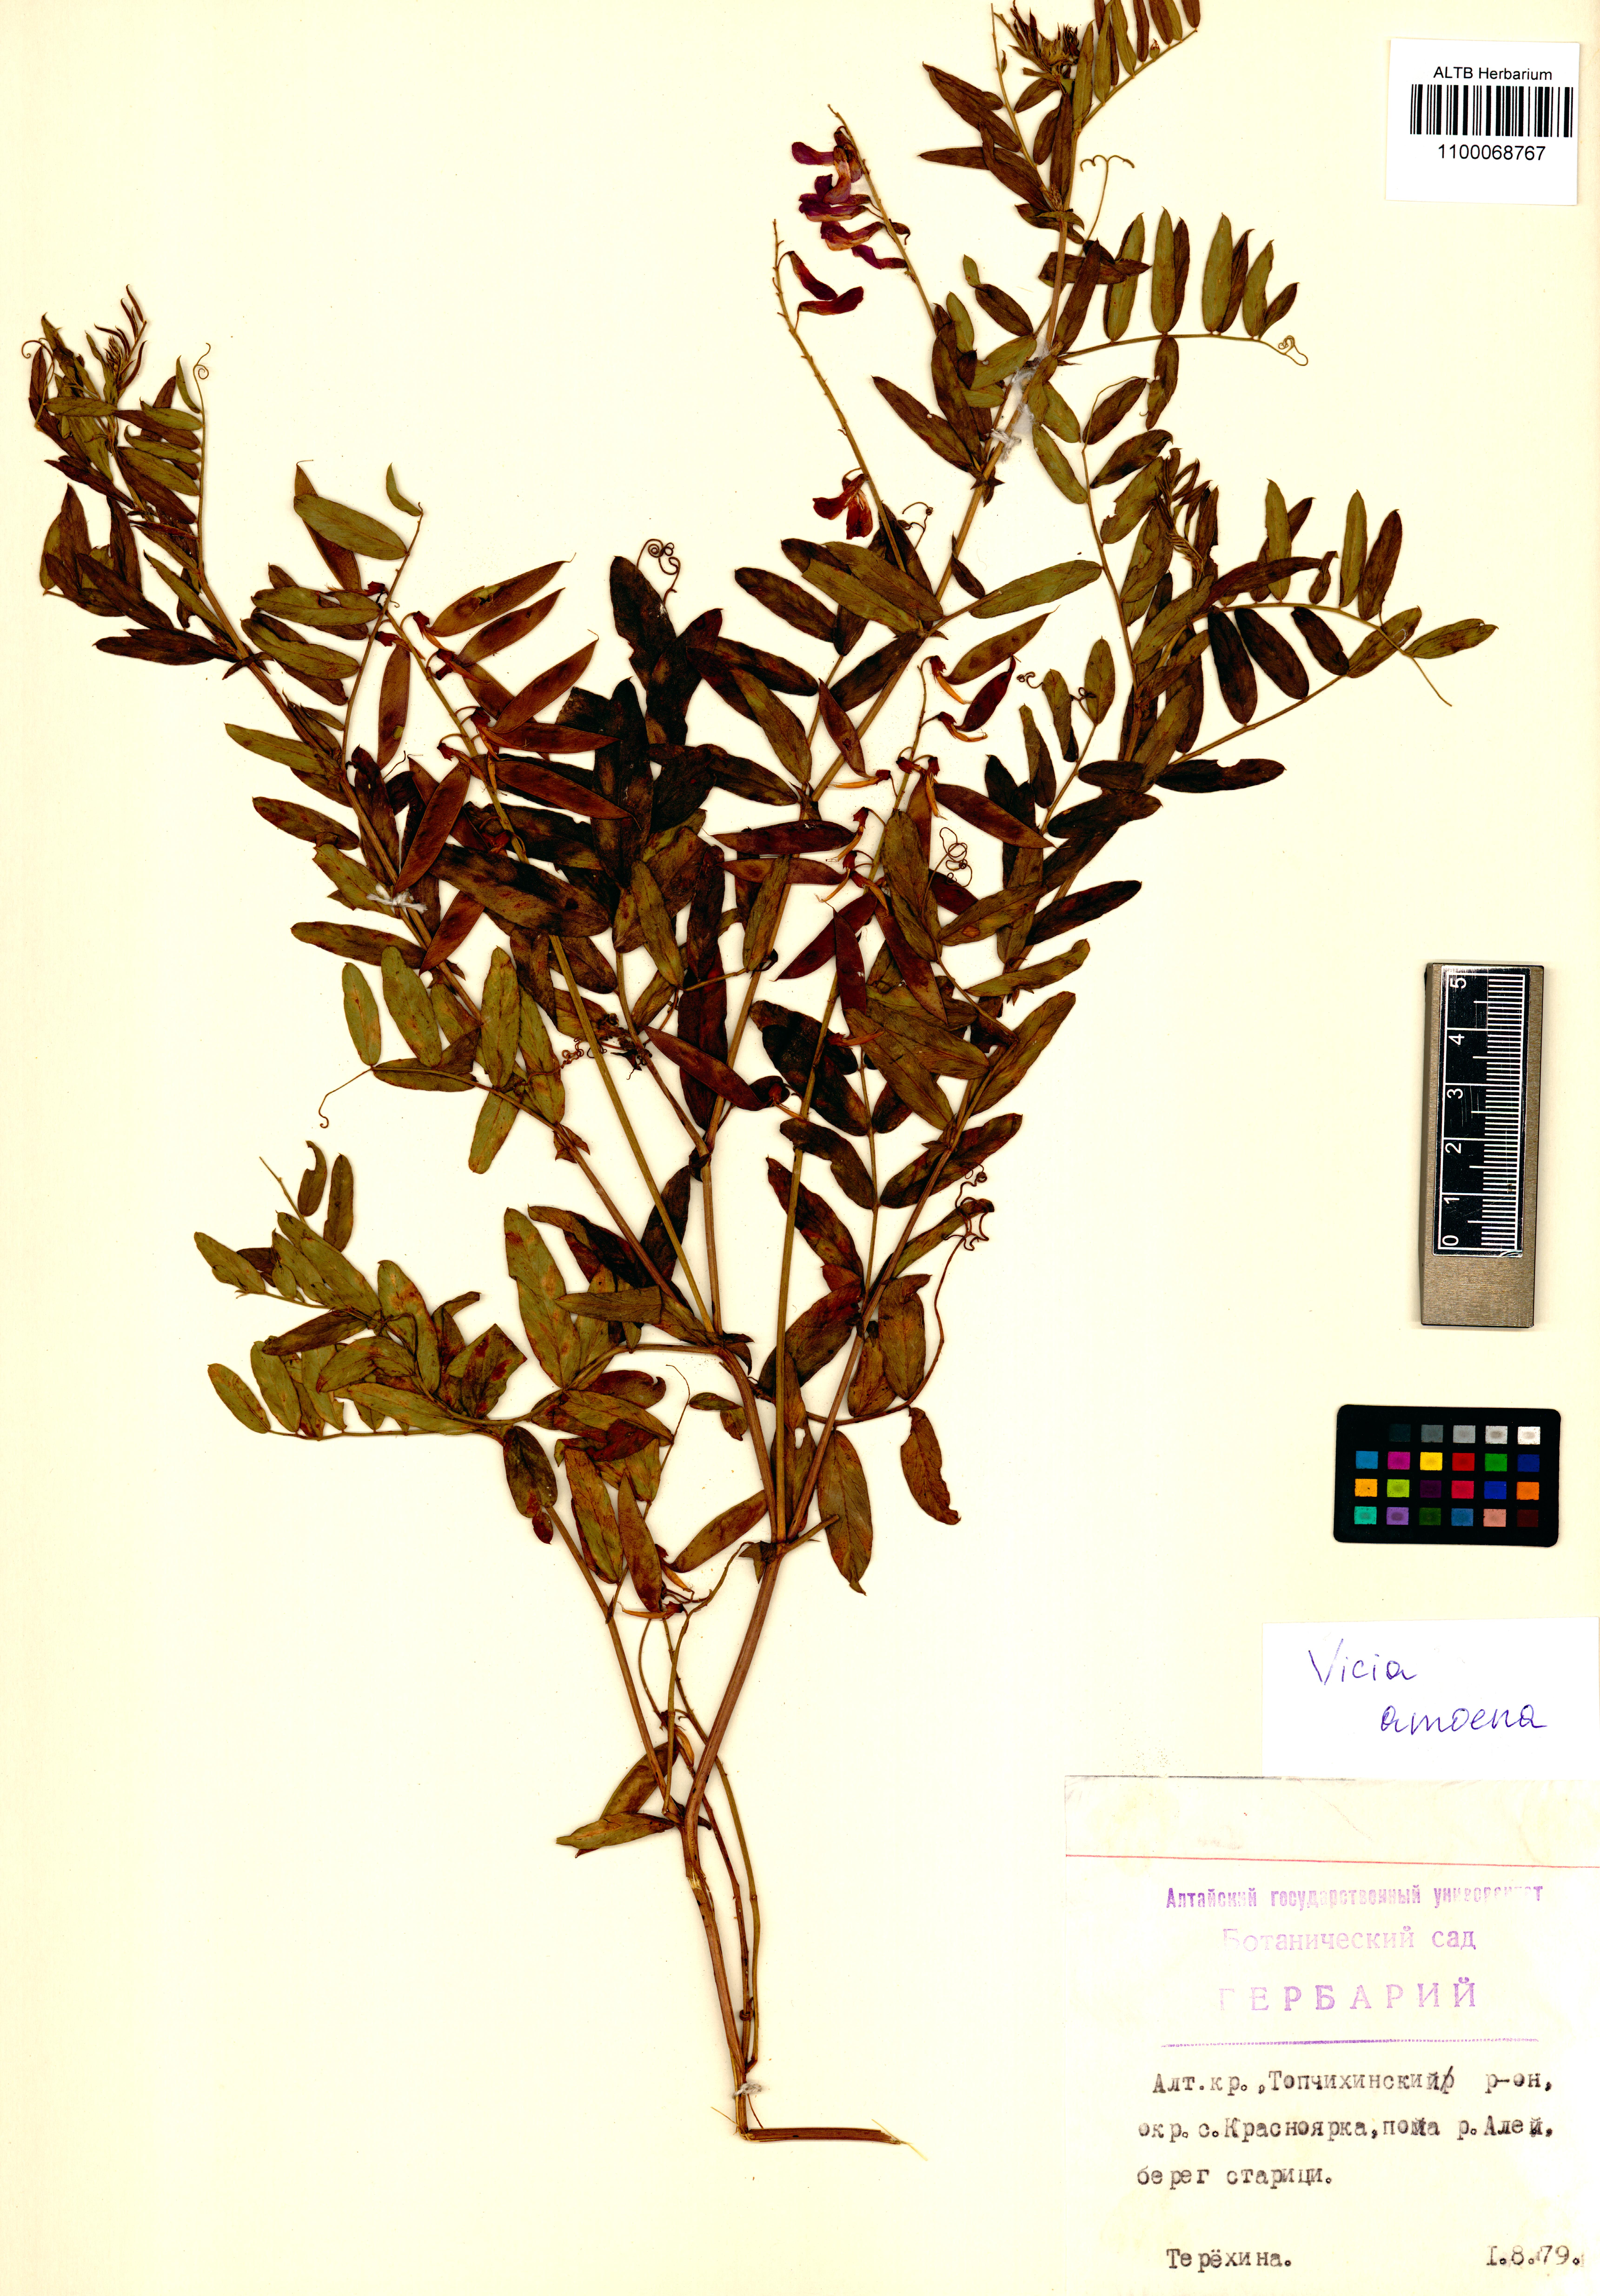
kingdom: Plantae
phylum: Tracheophyta
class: Magnoliopsida
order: Fabales
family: Fabaceae
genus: Vicia
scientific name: Vicia amoena
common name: Cheder ebs
